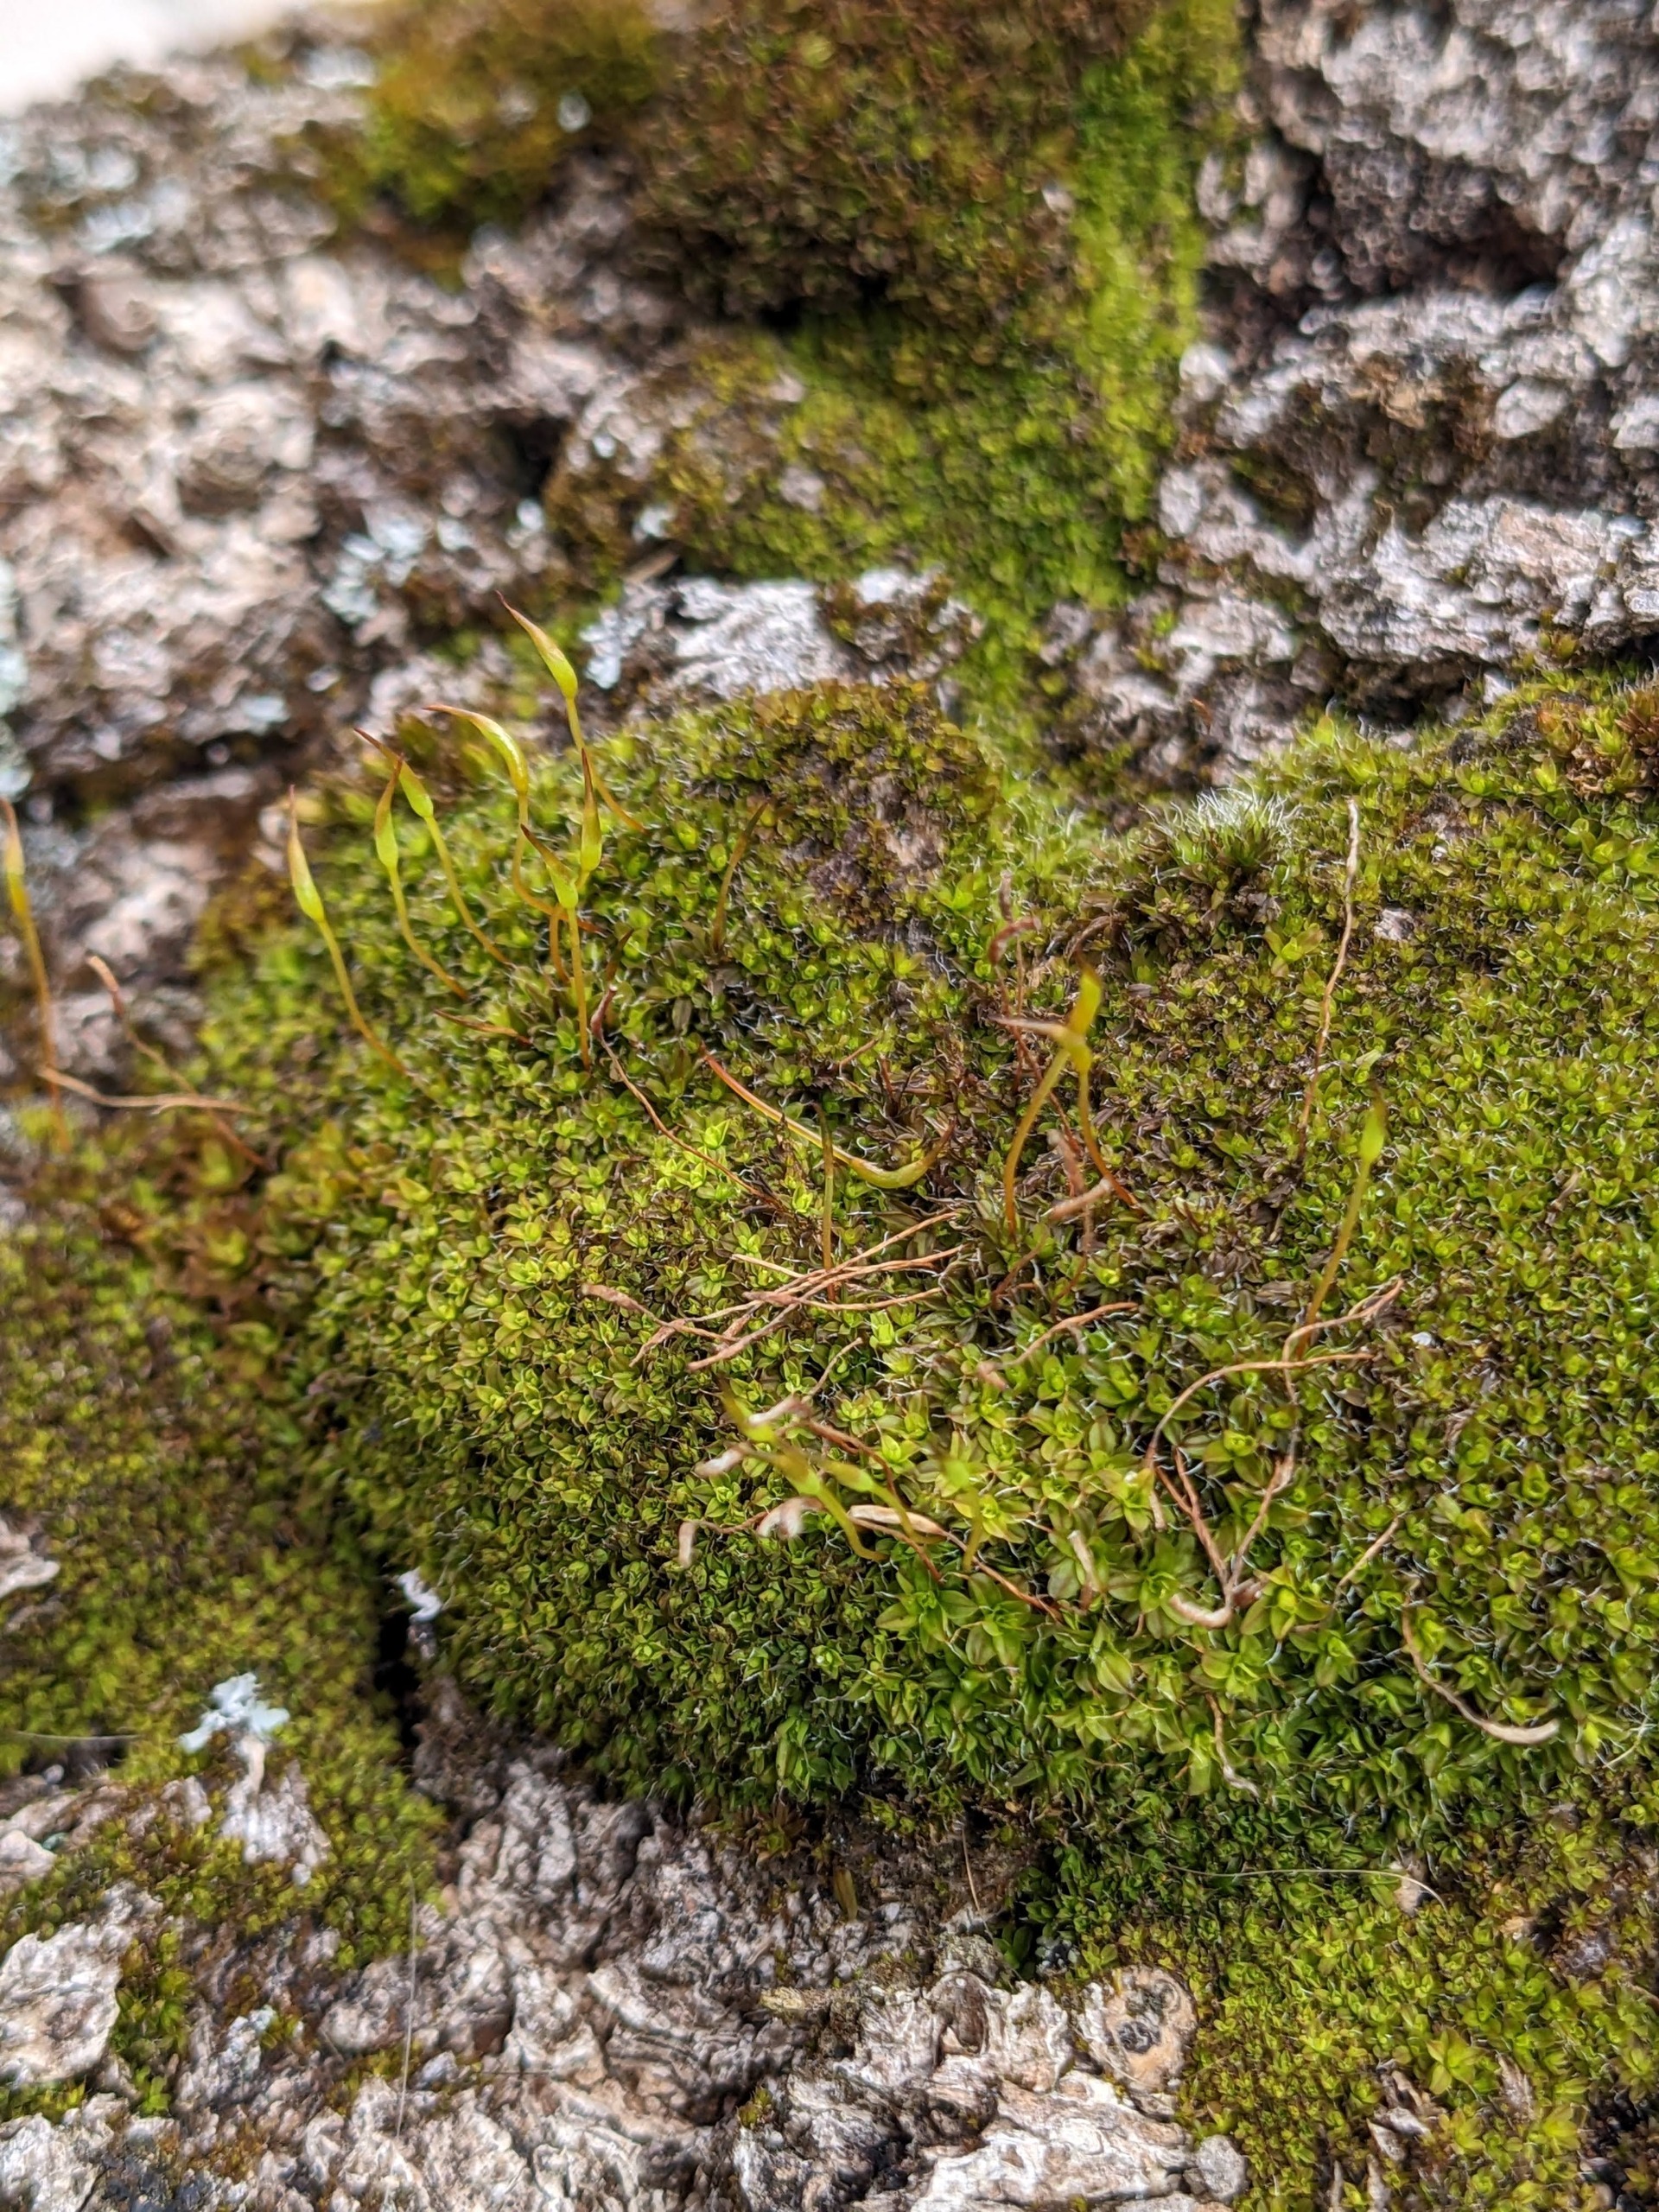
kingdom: Plantae
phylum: Bryophyta
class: Bryopsida
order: Pottiales
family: Pottiaceae
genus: Syntrichia
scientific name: Syntrichia virescens
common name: Grøn hårstjerne
